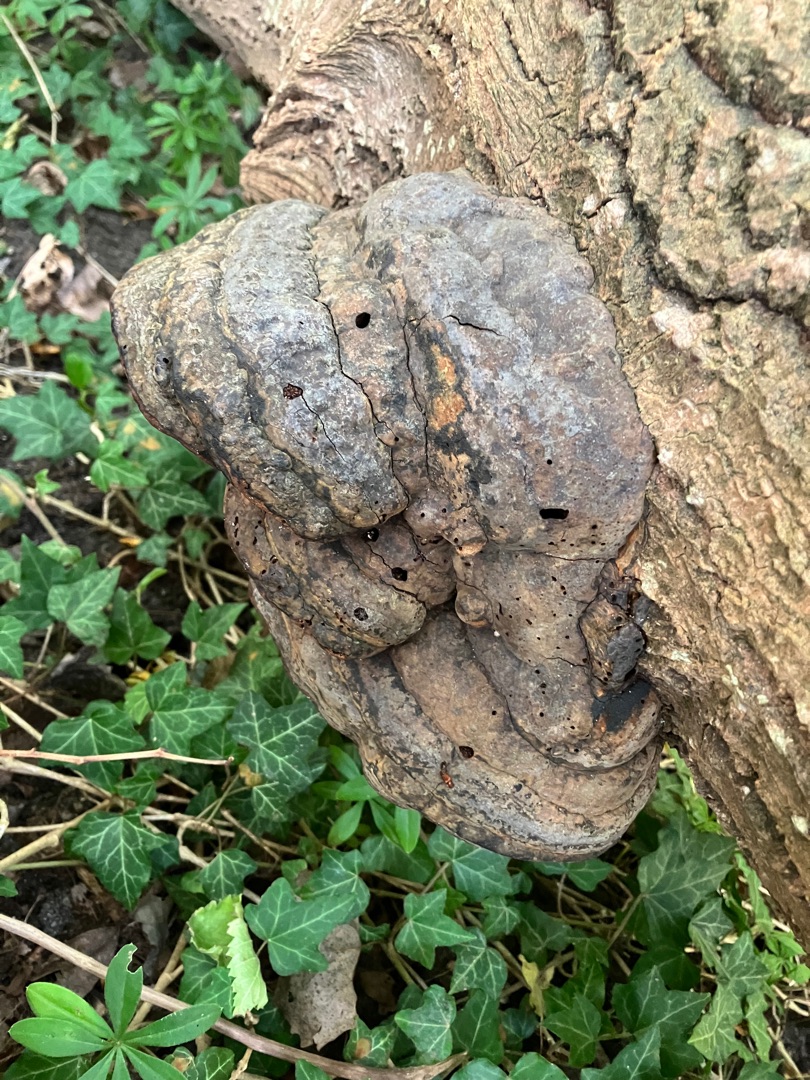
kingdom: Fungi
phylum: Basidiomycota
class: Agaricomycetes
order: Polyporales
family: Polyporaceae
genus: Fomes
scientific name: Fomes fomentarius
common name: Tøndersvamp
